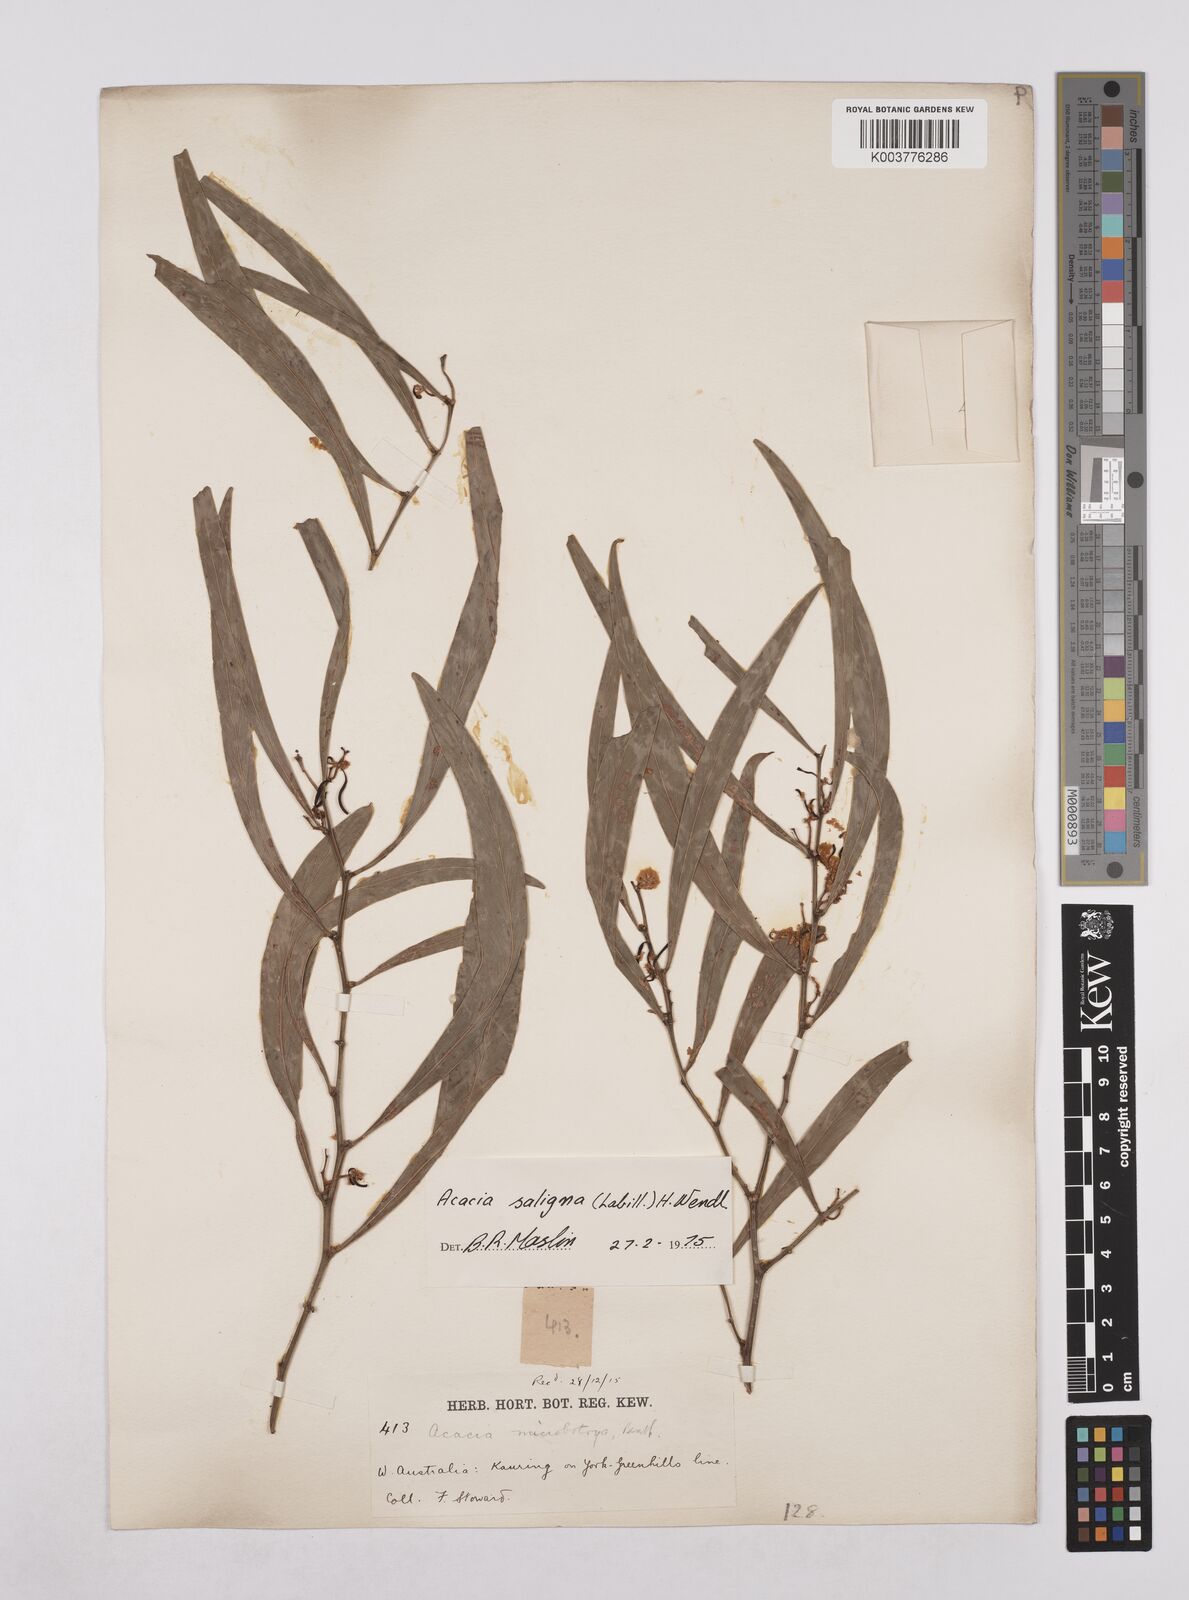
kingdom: Plantae
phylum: Tracheophyta
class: Magnoliopsida
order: Fabales
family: Fabaceae
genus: Acacia
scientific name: Acacia saligna
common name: Orange wattle
